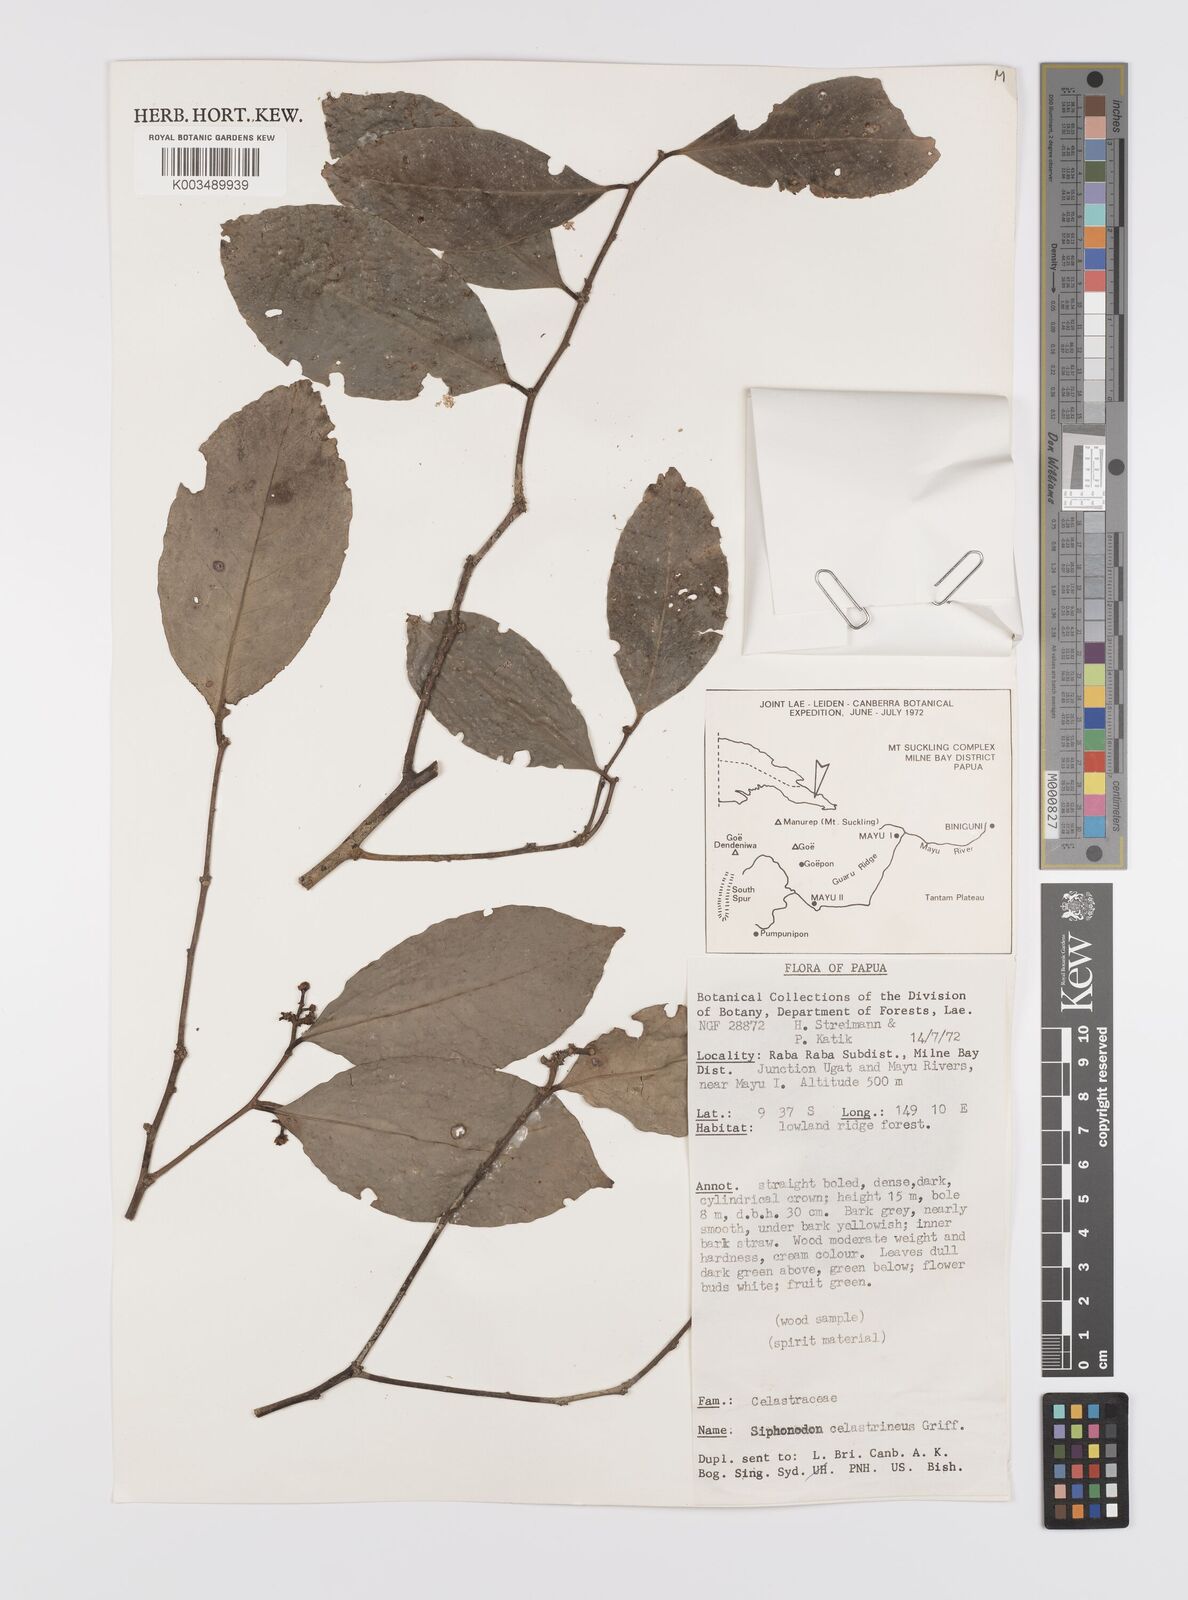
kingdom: Plantae
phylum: Tracheophyta
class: Magnoliopsida
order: Celastrales
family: Celastraceae
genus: Siphonodon
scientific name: Siphonodon celastrineus
